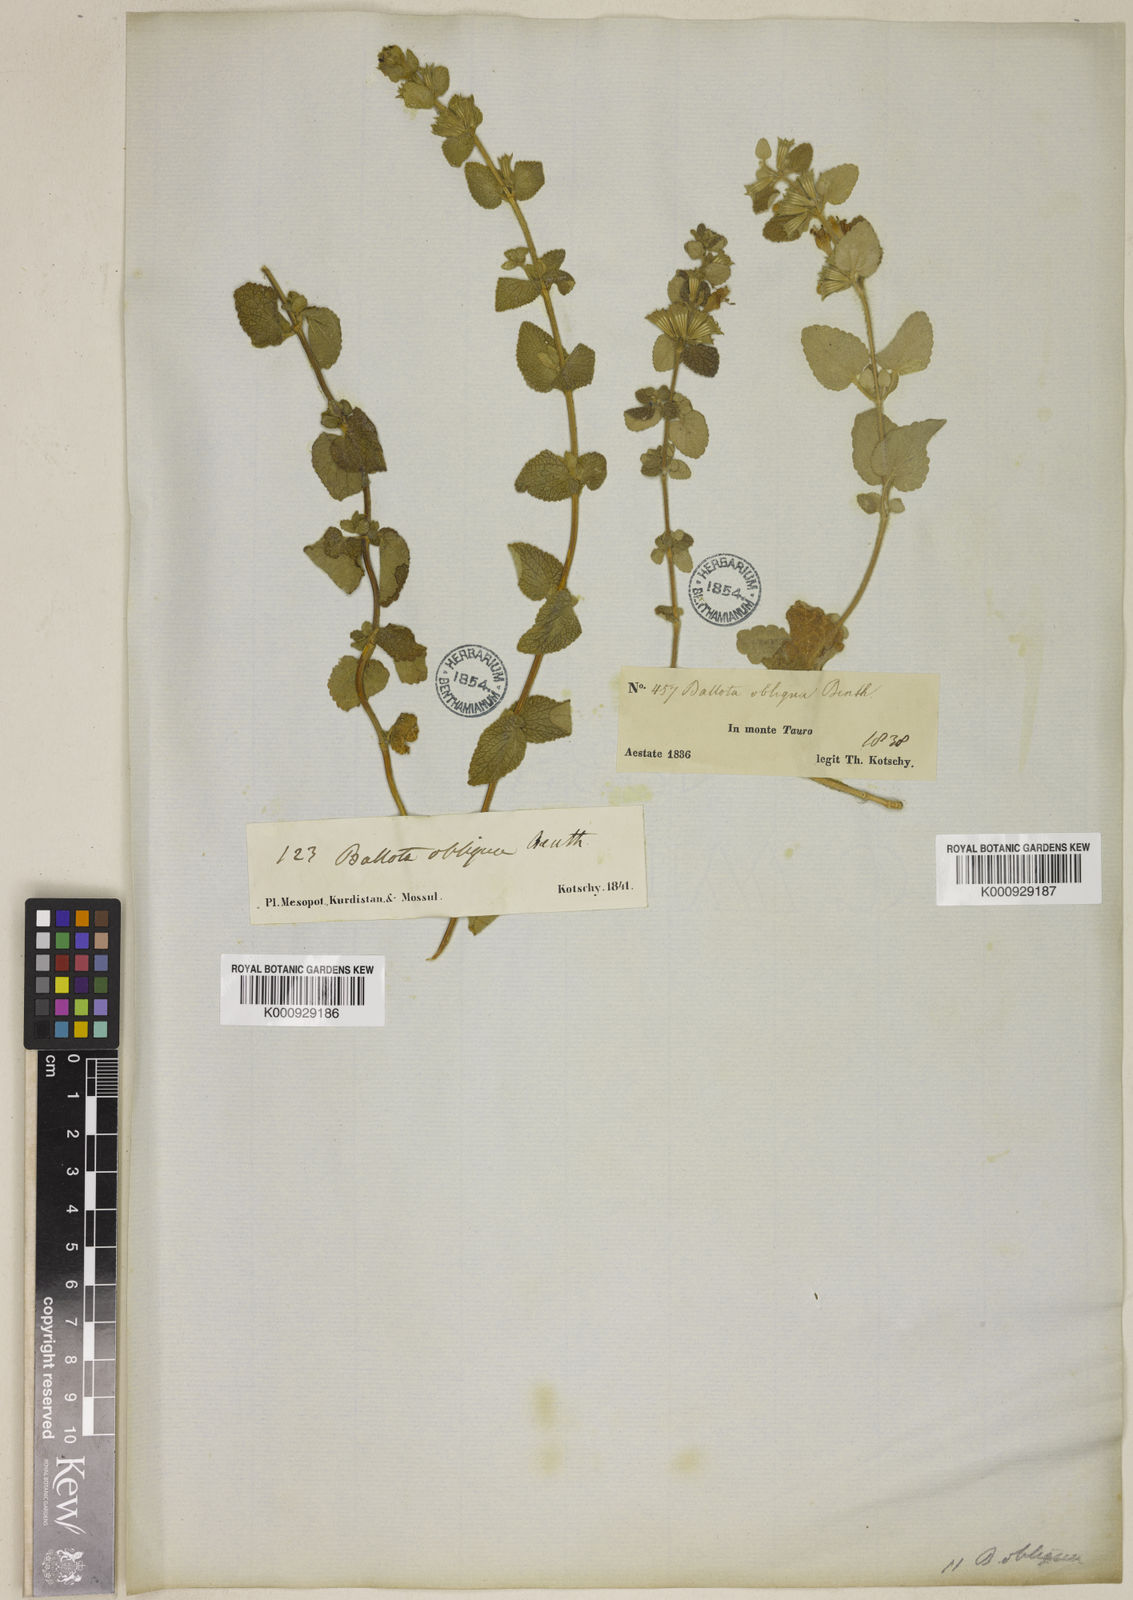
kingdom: Plantae
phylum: Tracheophyta
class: Magnoliopsida
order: Lamiales
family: Lamiaceae
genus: Ballota
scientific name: Ballota saxatilis
